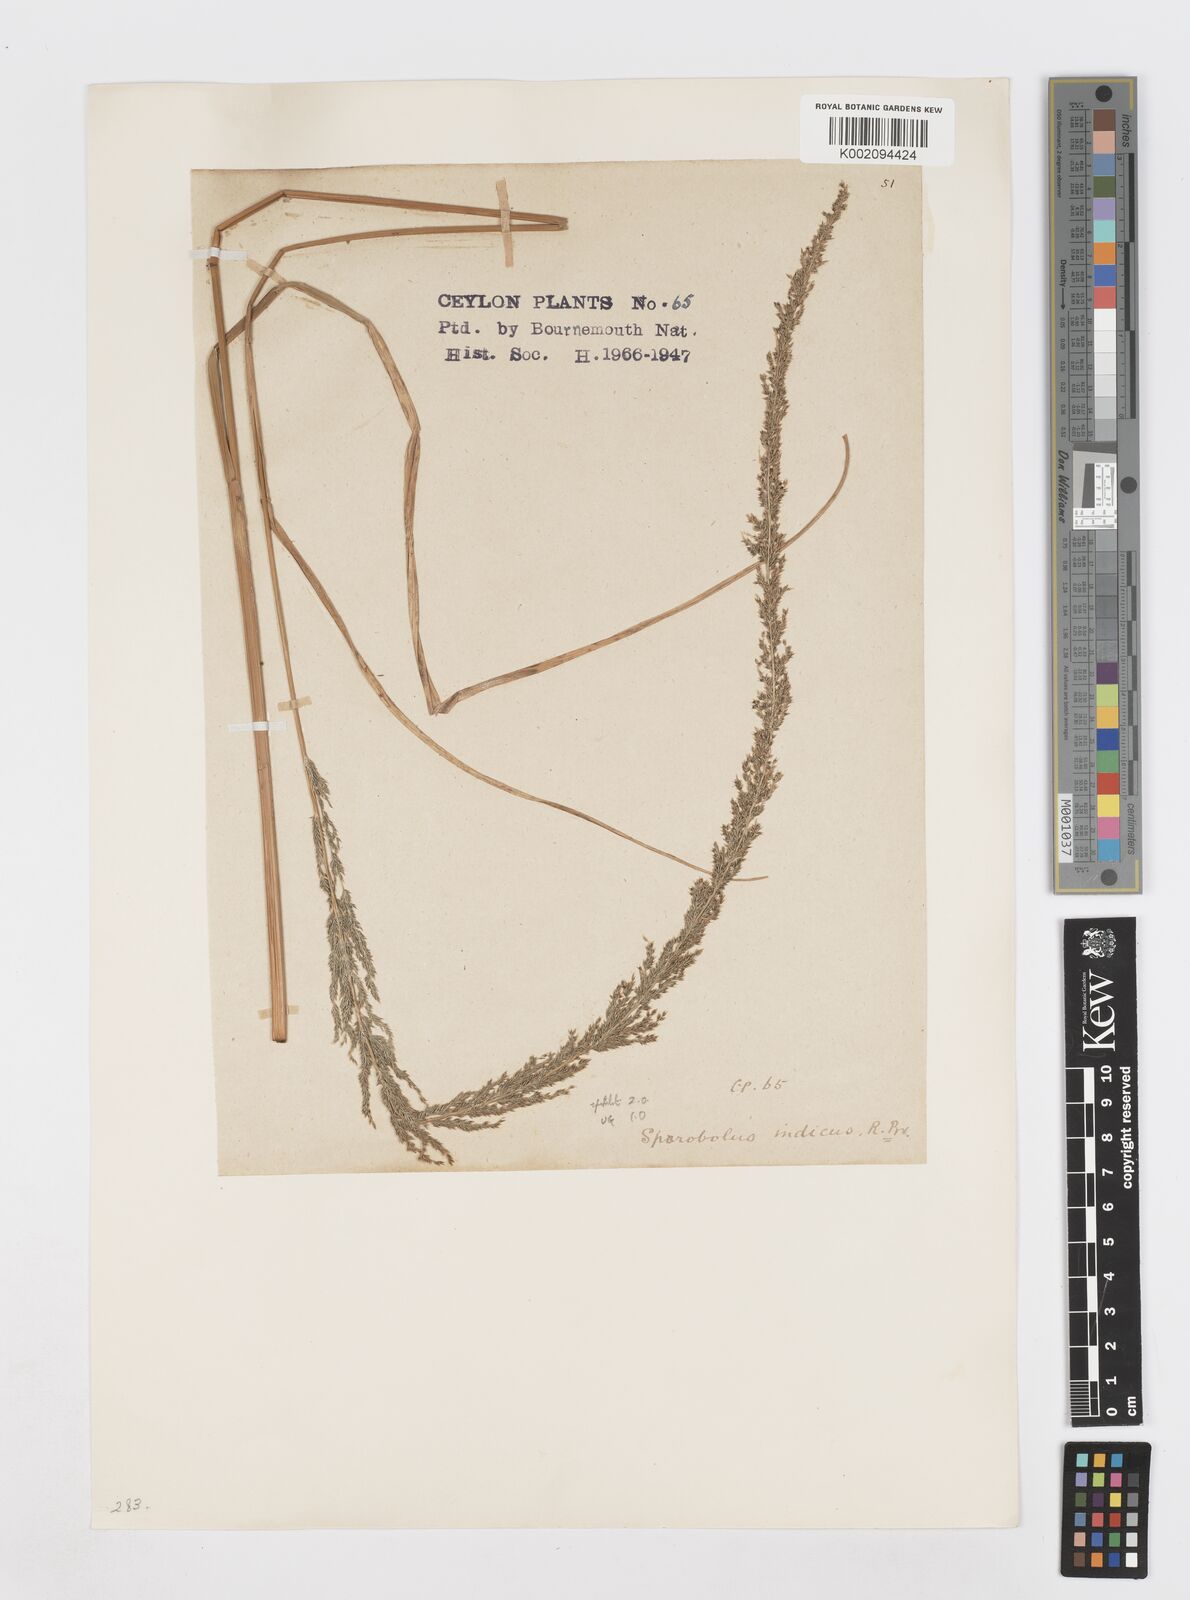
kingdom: Plantae
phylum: Tracheophyta
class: Liliopsida
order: Poales
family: Poaceae
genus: Sporobolus
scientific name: Sporobolus fertilis
